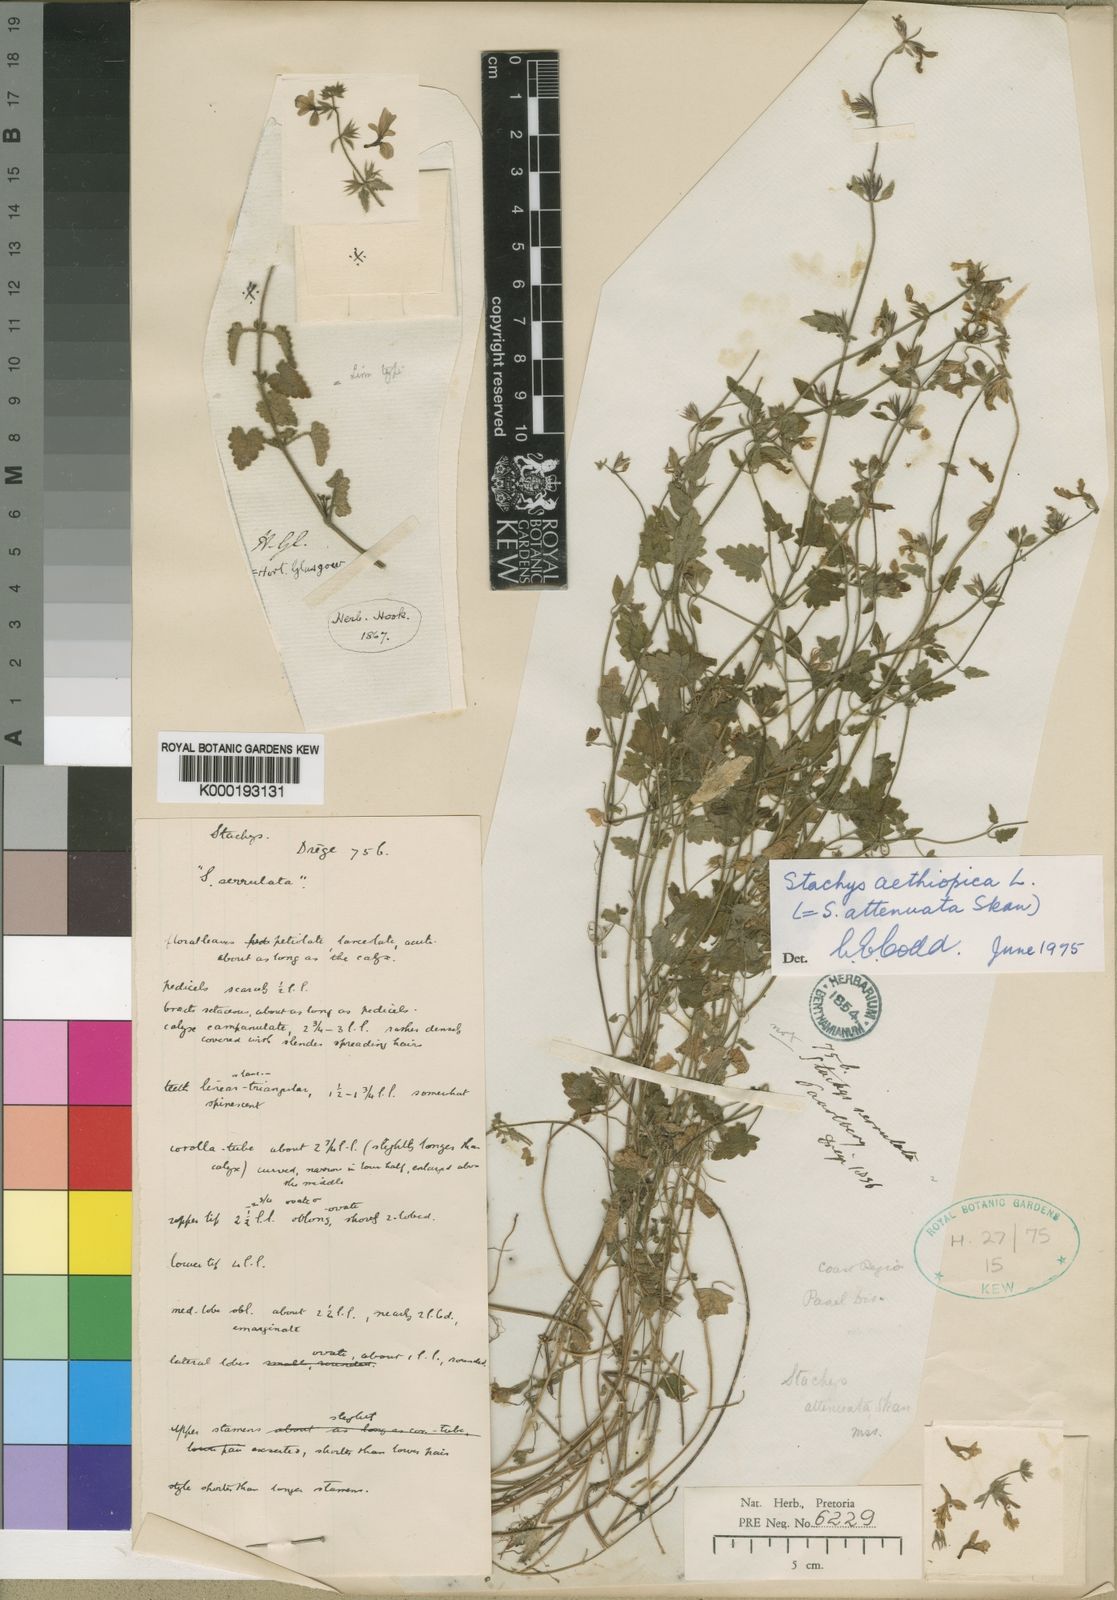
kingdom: Plantae
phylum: Tracheophyta
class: Magnoliopsida
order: Lamiales
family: Lamiaceae
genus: Stachys
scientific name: Stachys aethiopica
